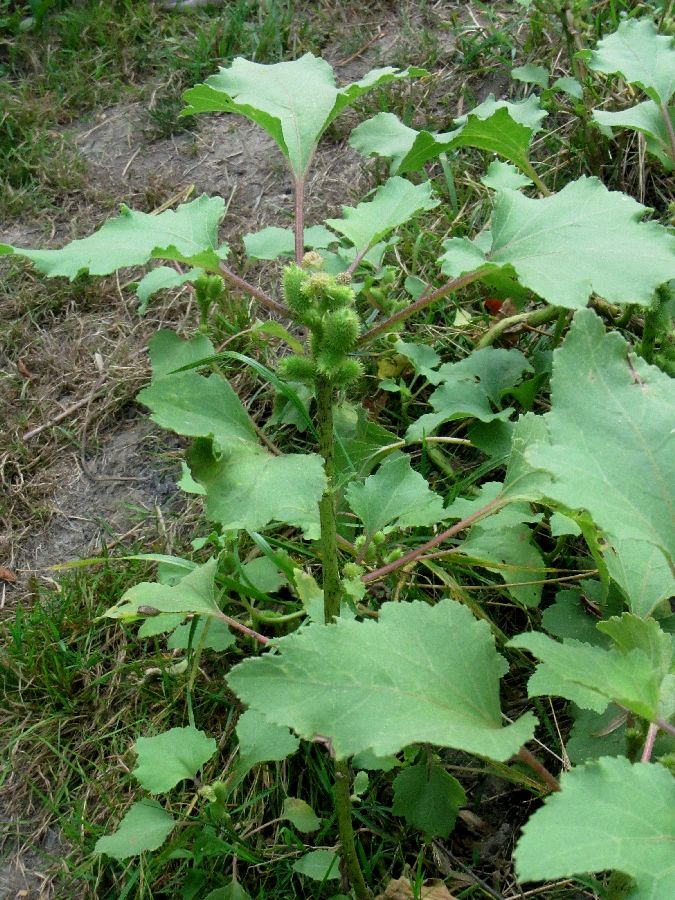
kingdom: Plantae
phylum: Tracheophyta
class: Magnoliopsida
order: Asterales
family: Asteraceae
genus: Xanthium
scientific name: Xanthium orientale
